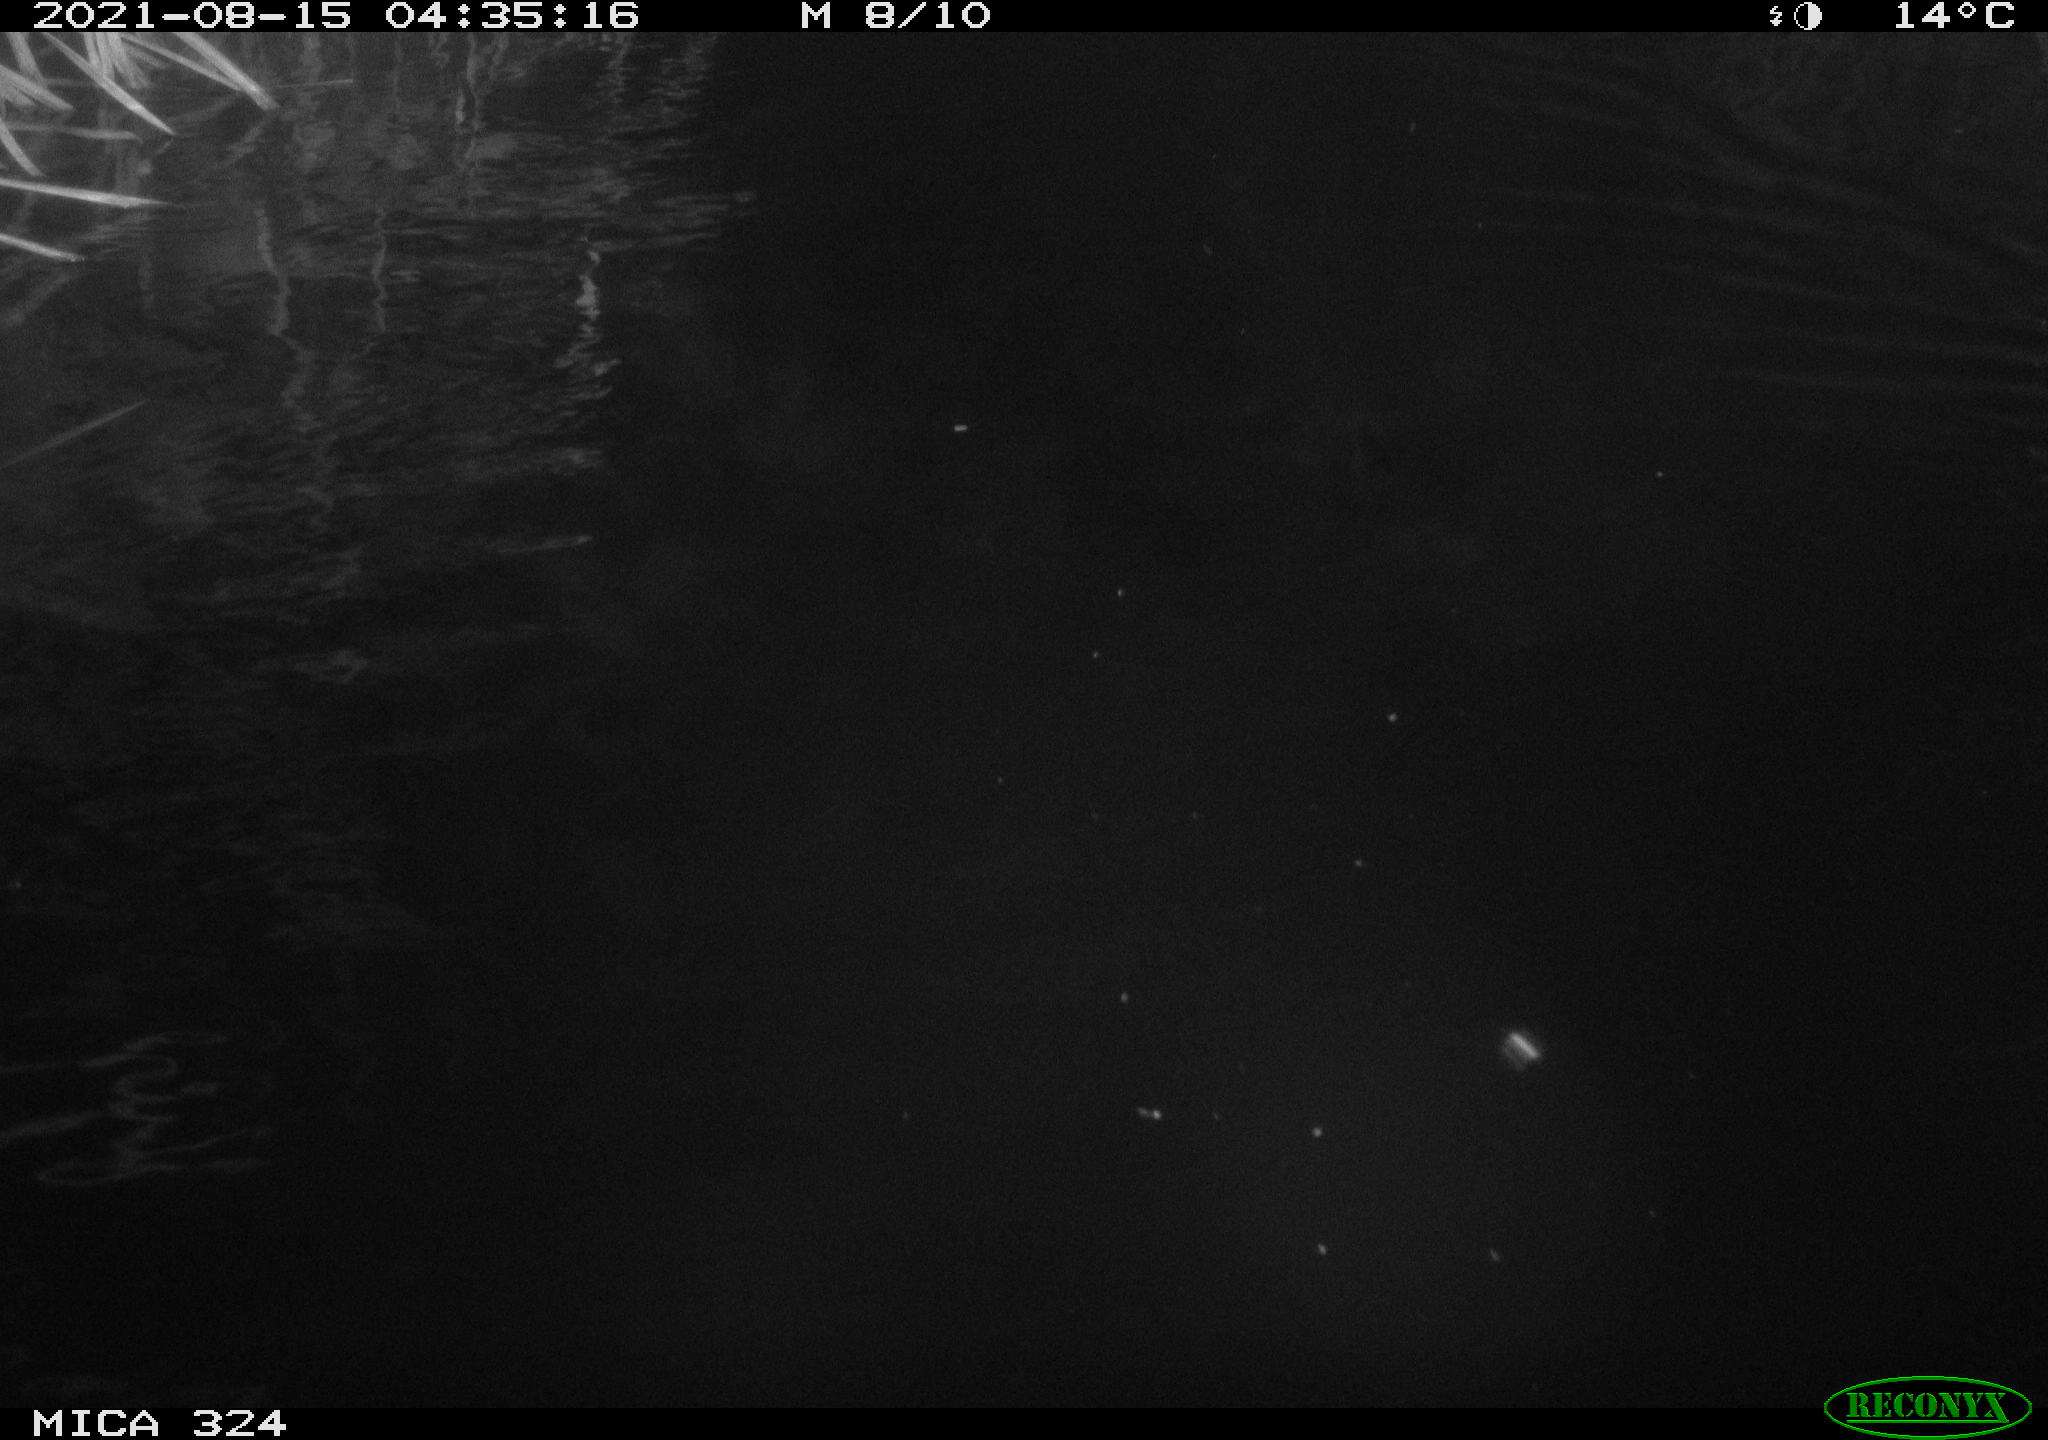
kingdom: Animalia
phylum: Chordata
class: Mammalia
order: Rodentia
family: Cricetidae
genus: Ondatra
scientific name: Ondatra zibethicus
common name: Muskrat
